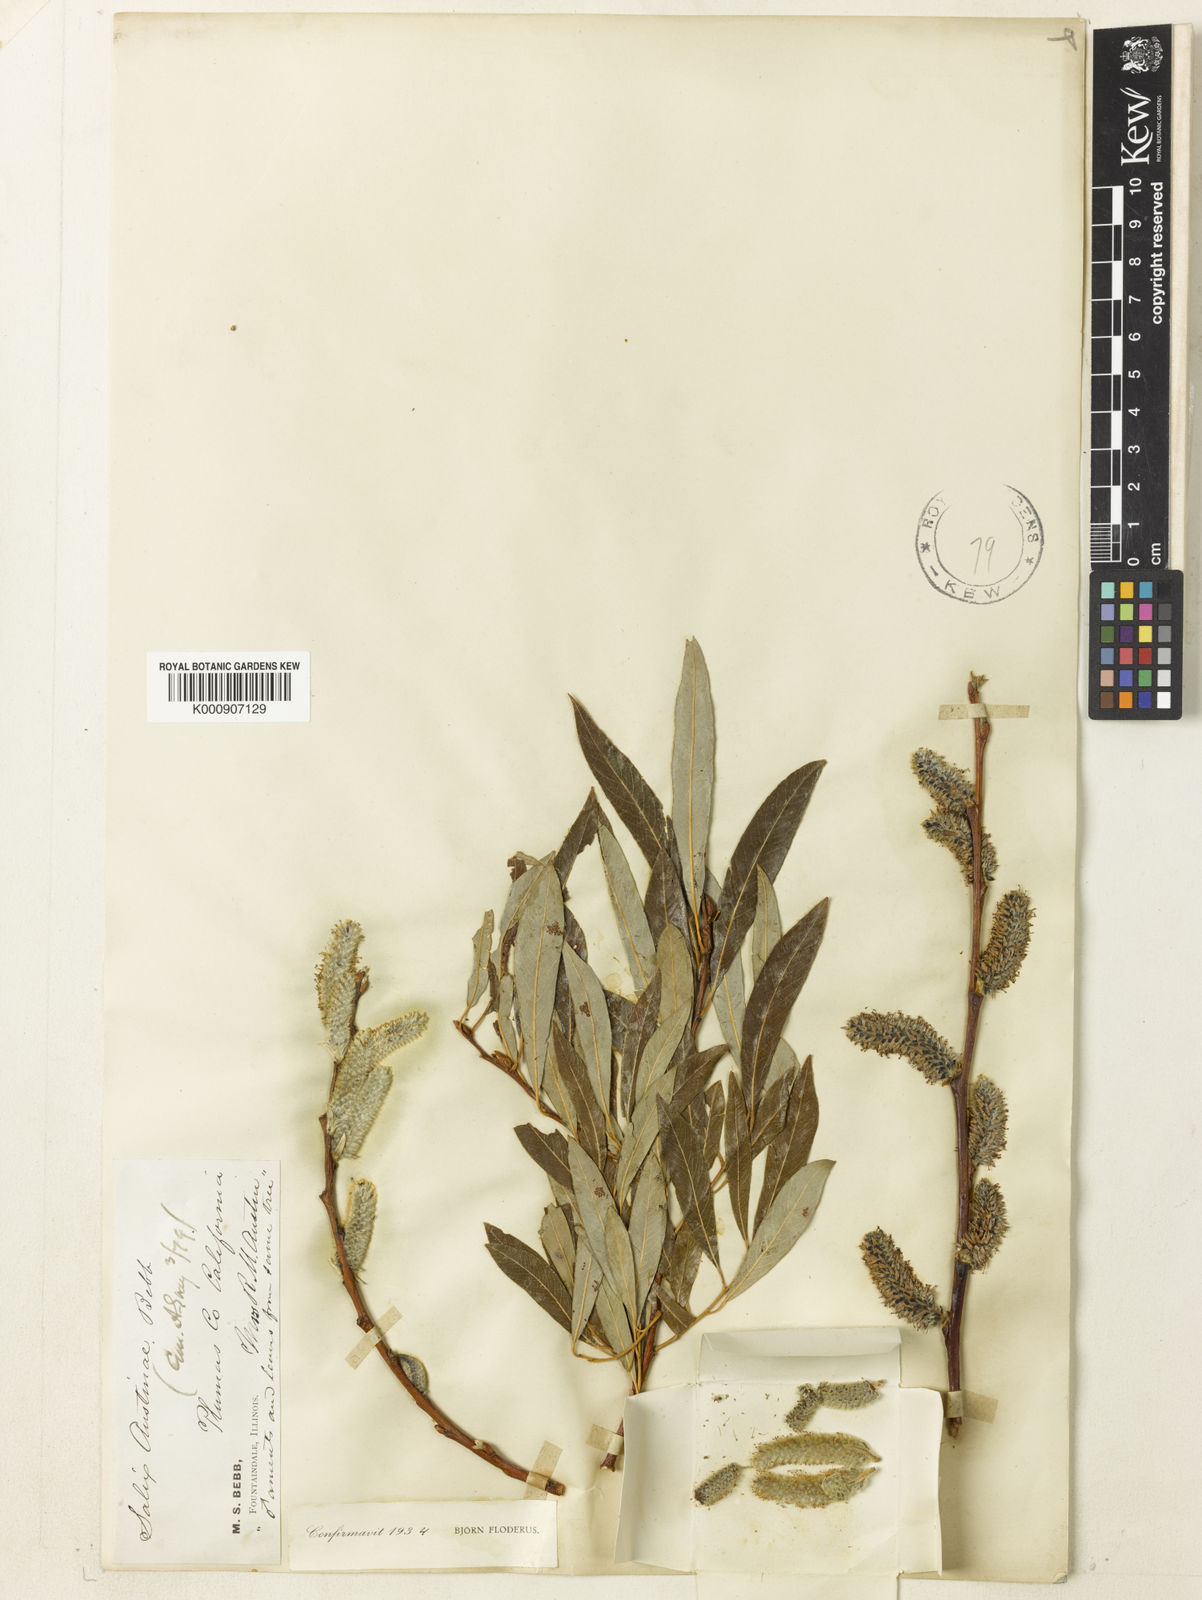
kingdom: Plantae
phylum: Tracheophyta
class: Magnoliopsida
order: Malpighiales
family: Salicaceae
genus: Salix
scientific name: Salix lemmonii
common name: Lemmon's willow
